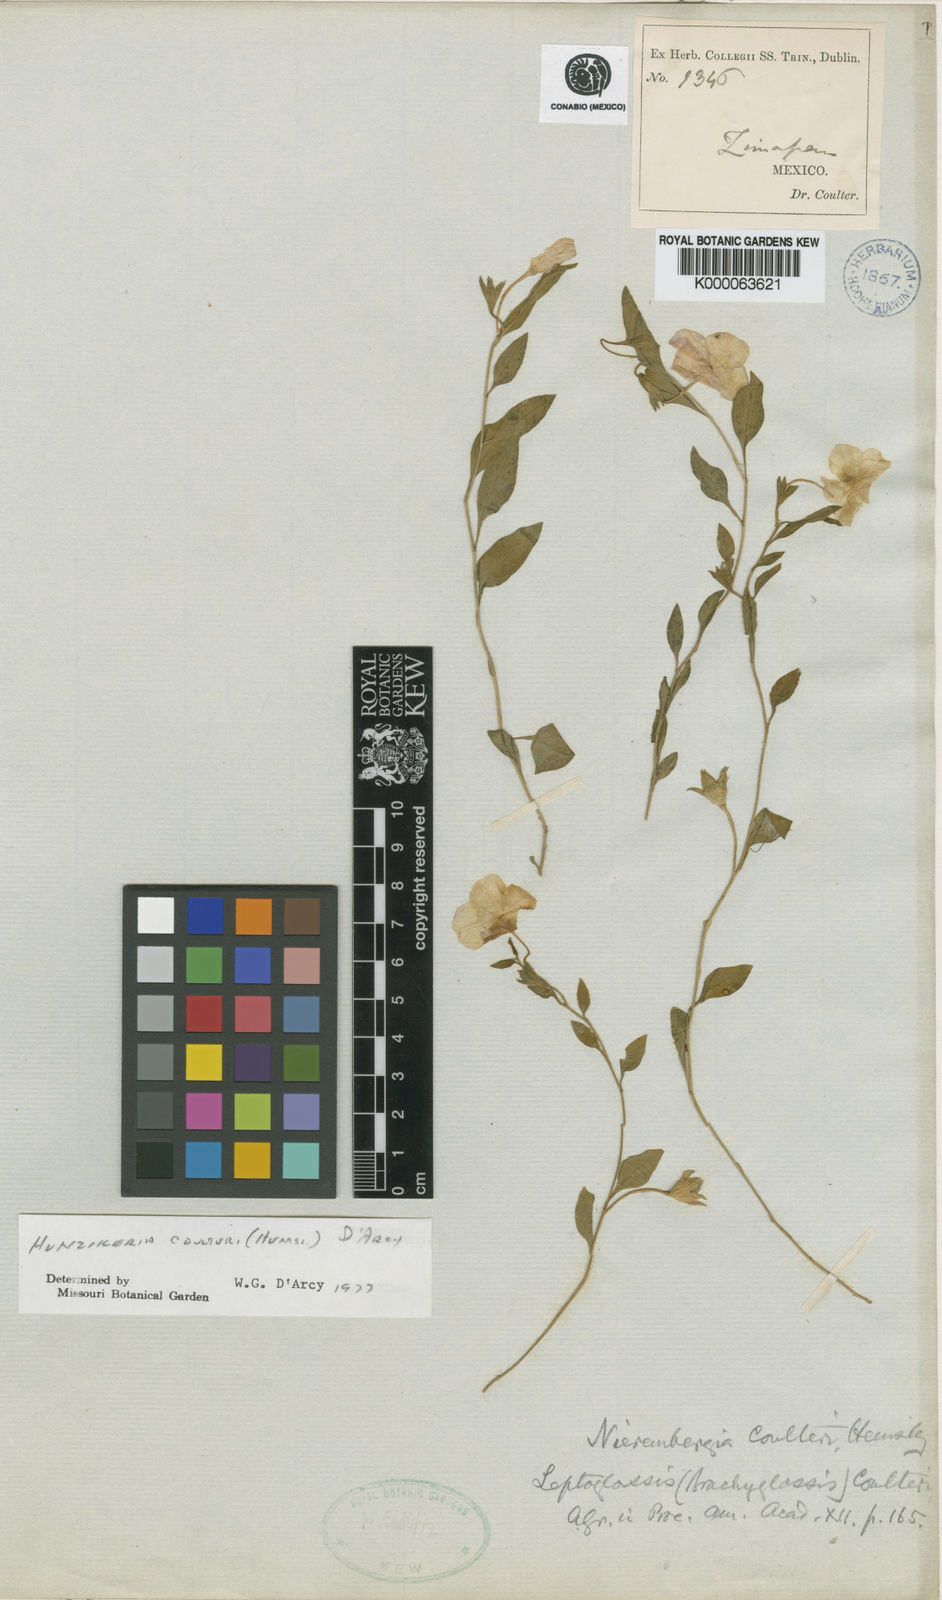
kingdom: Plantae
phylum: Tracheophyta
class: Magnoliopsida
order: Solanales
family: Solanaceae
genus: Hunzikeria
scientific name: Hunzikeria
